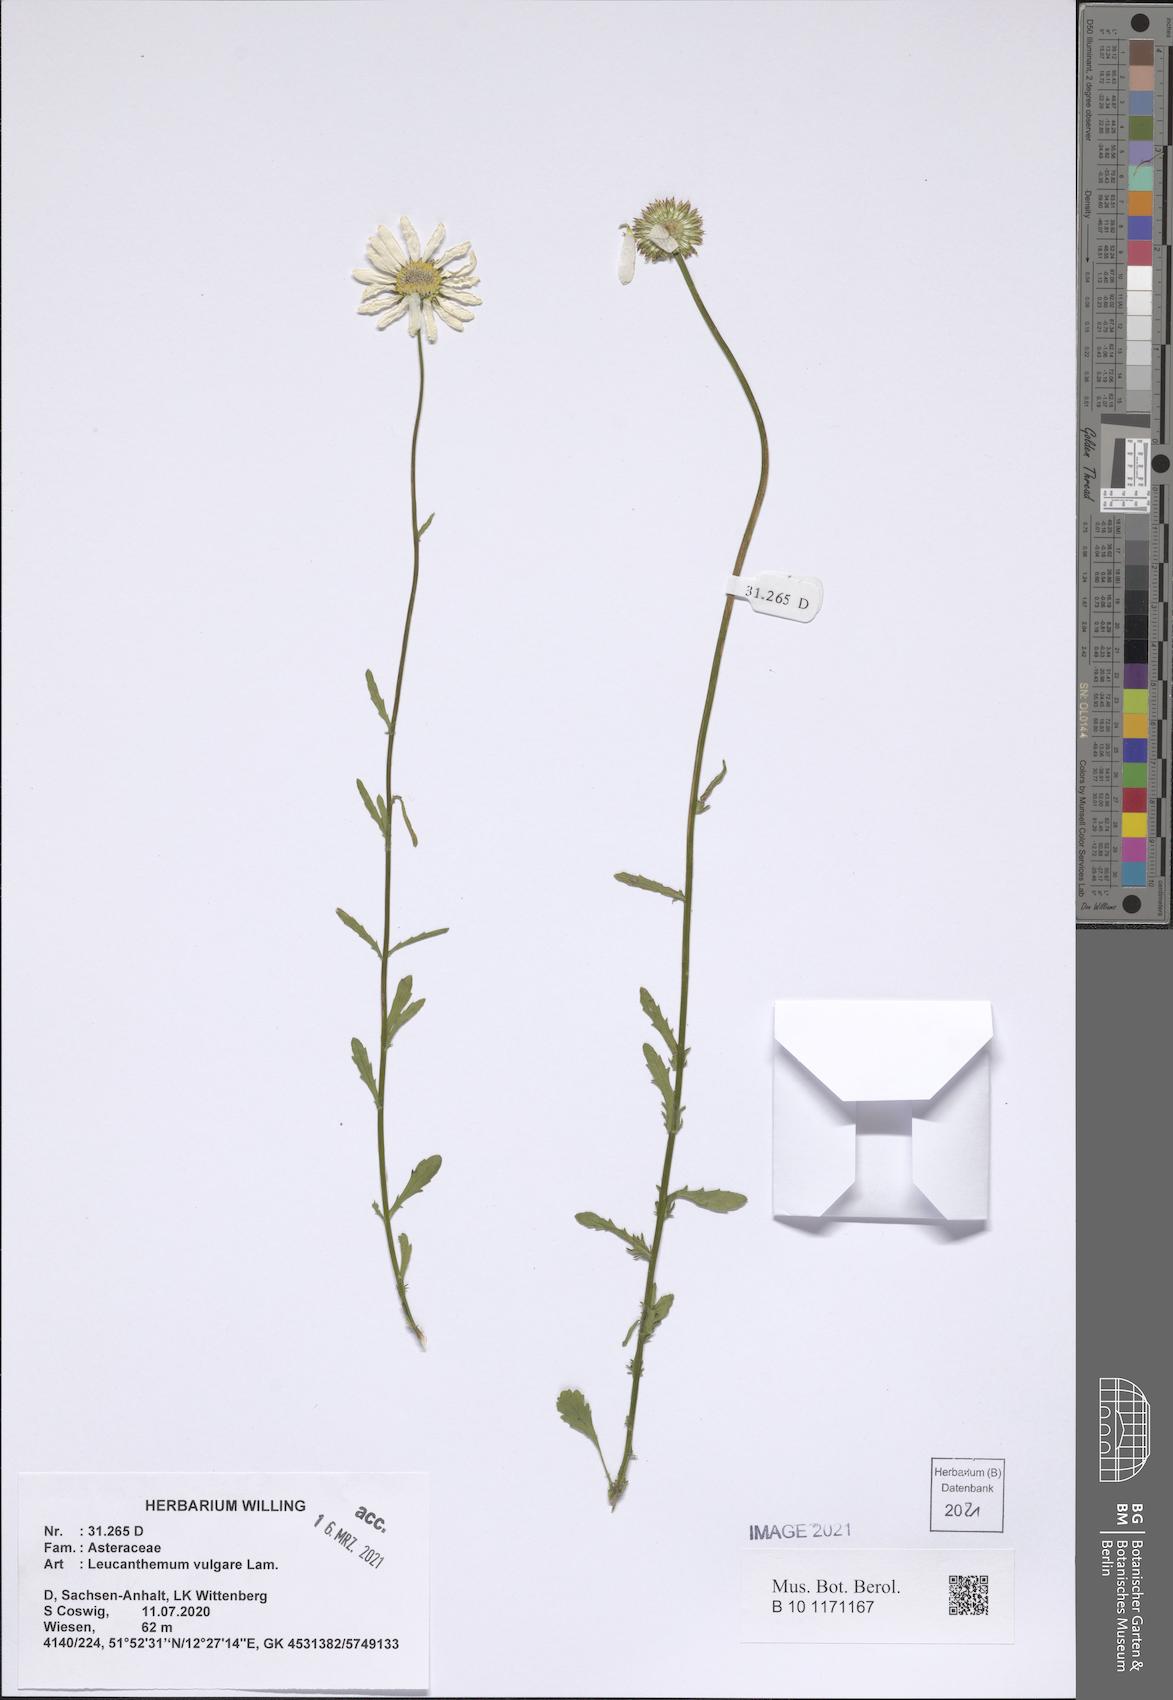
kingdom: Plantae
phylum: Tracheophyta
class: Magnoliopsida
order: Asterales
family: Asteraceae
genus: Leucanthemum
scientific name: Leucanthemum vulgare
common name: Oxeye daisy
